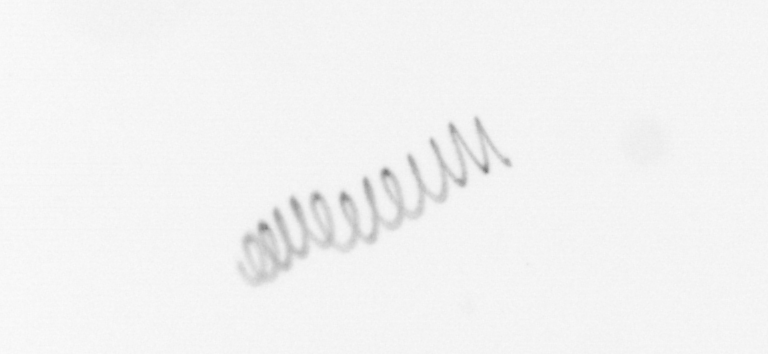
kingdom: Chromista
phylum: Ochrophyta
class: Bacillariophyceae
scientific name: Bacillariophyceae
